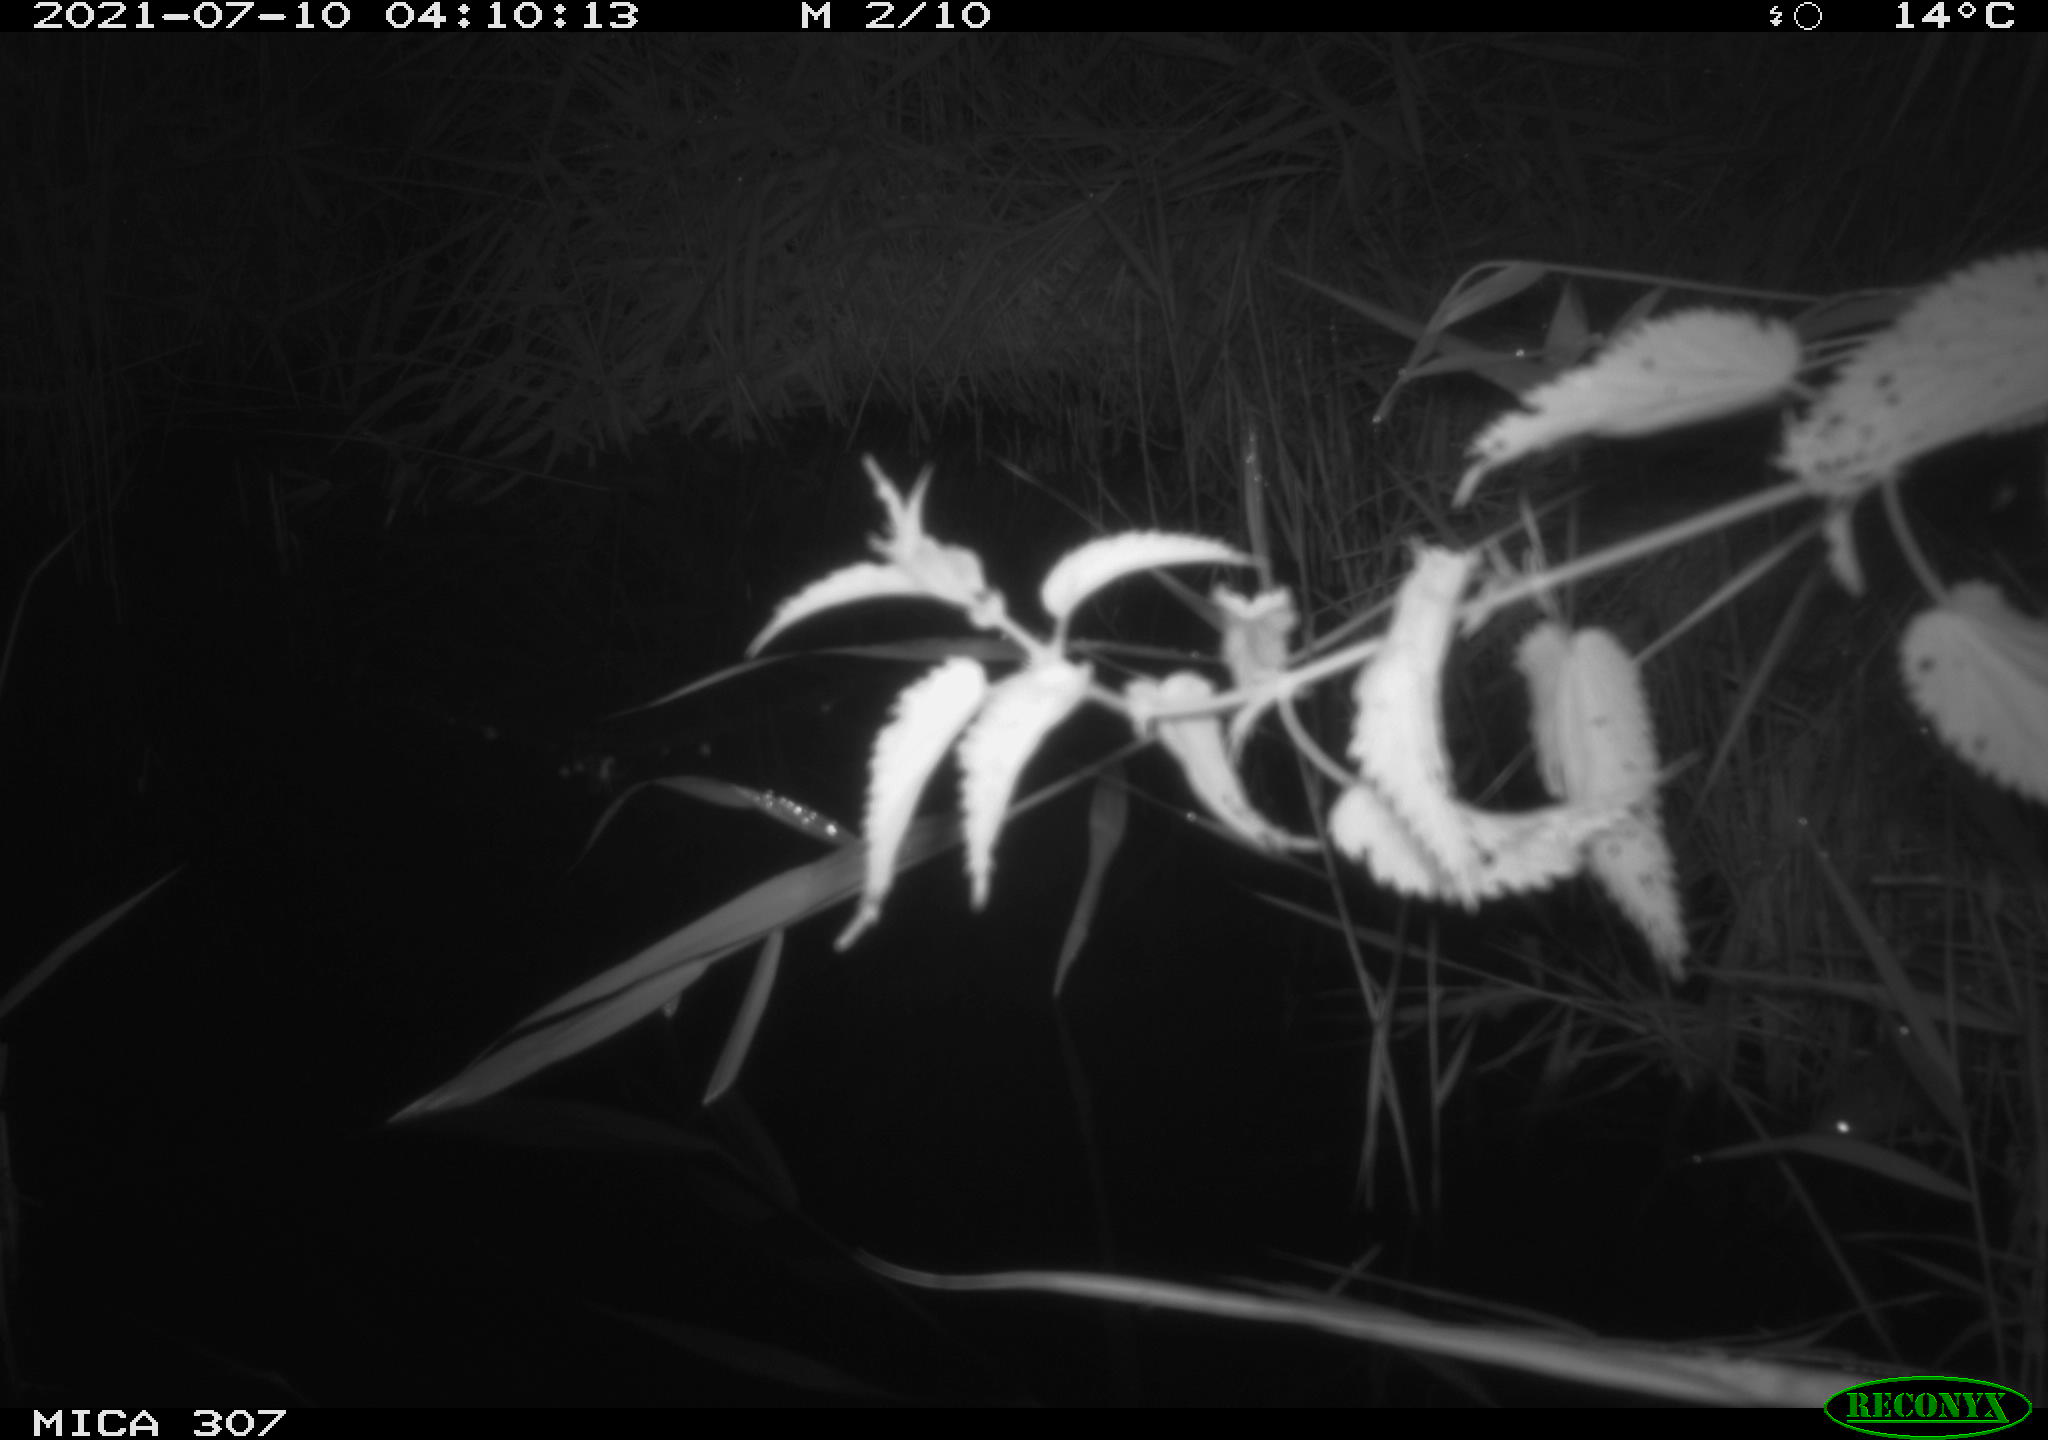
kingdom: Animalia
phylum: Chordata
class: Mammalia
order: Rodentia
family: Muridae
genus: Rattus
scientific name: Rattus norvegicus
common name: Brown rat
